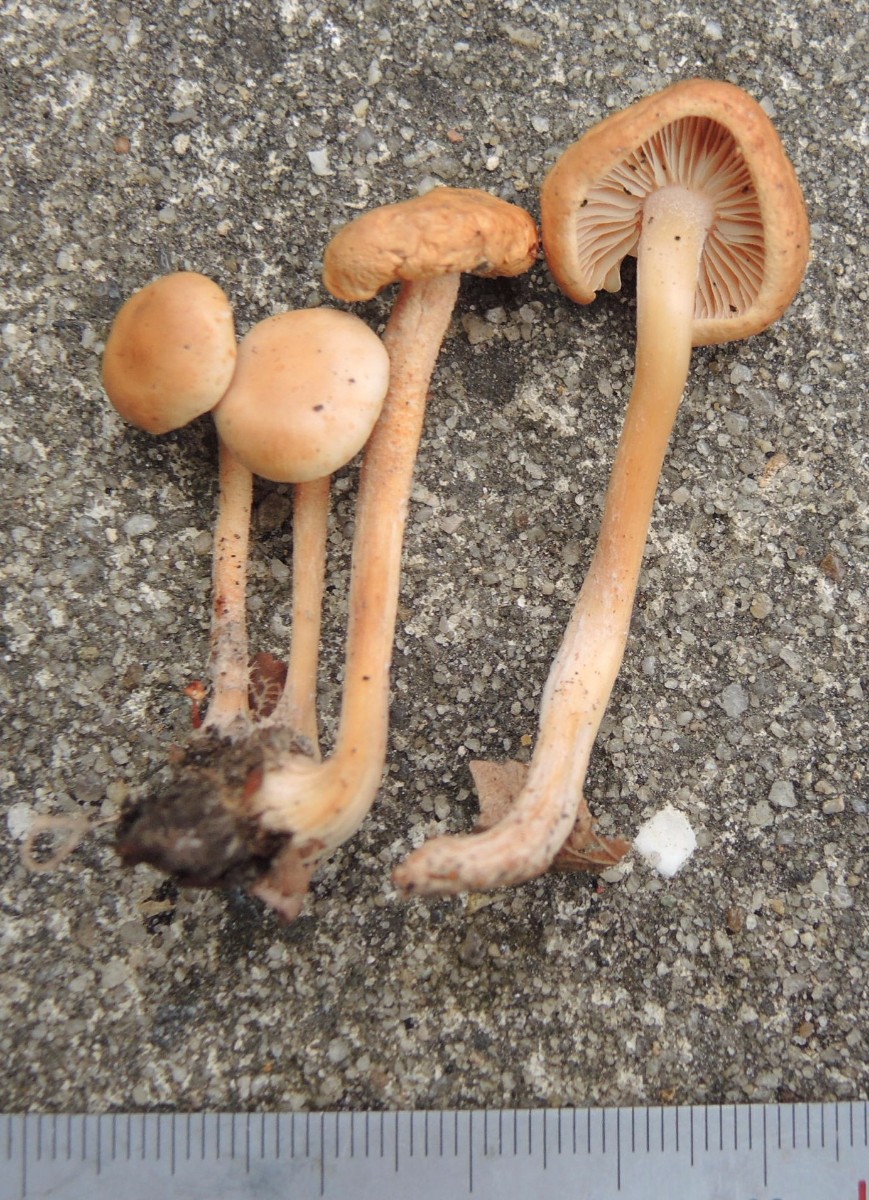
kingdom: Fungi
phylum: Basidiomycota
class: Agaricomycetes
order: Agaricales
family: Omphalotaceae
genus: Gymnopus
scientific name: Gymnopus aquosus
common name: bleg fladhat
